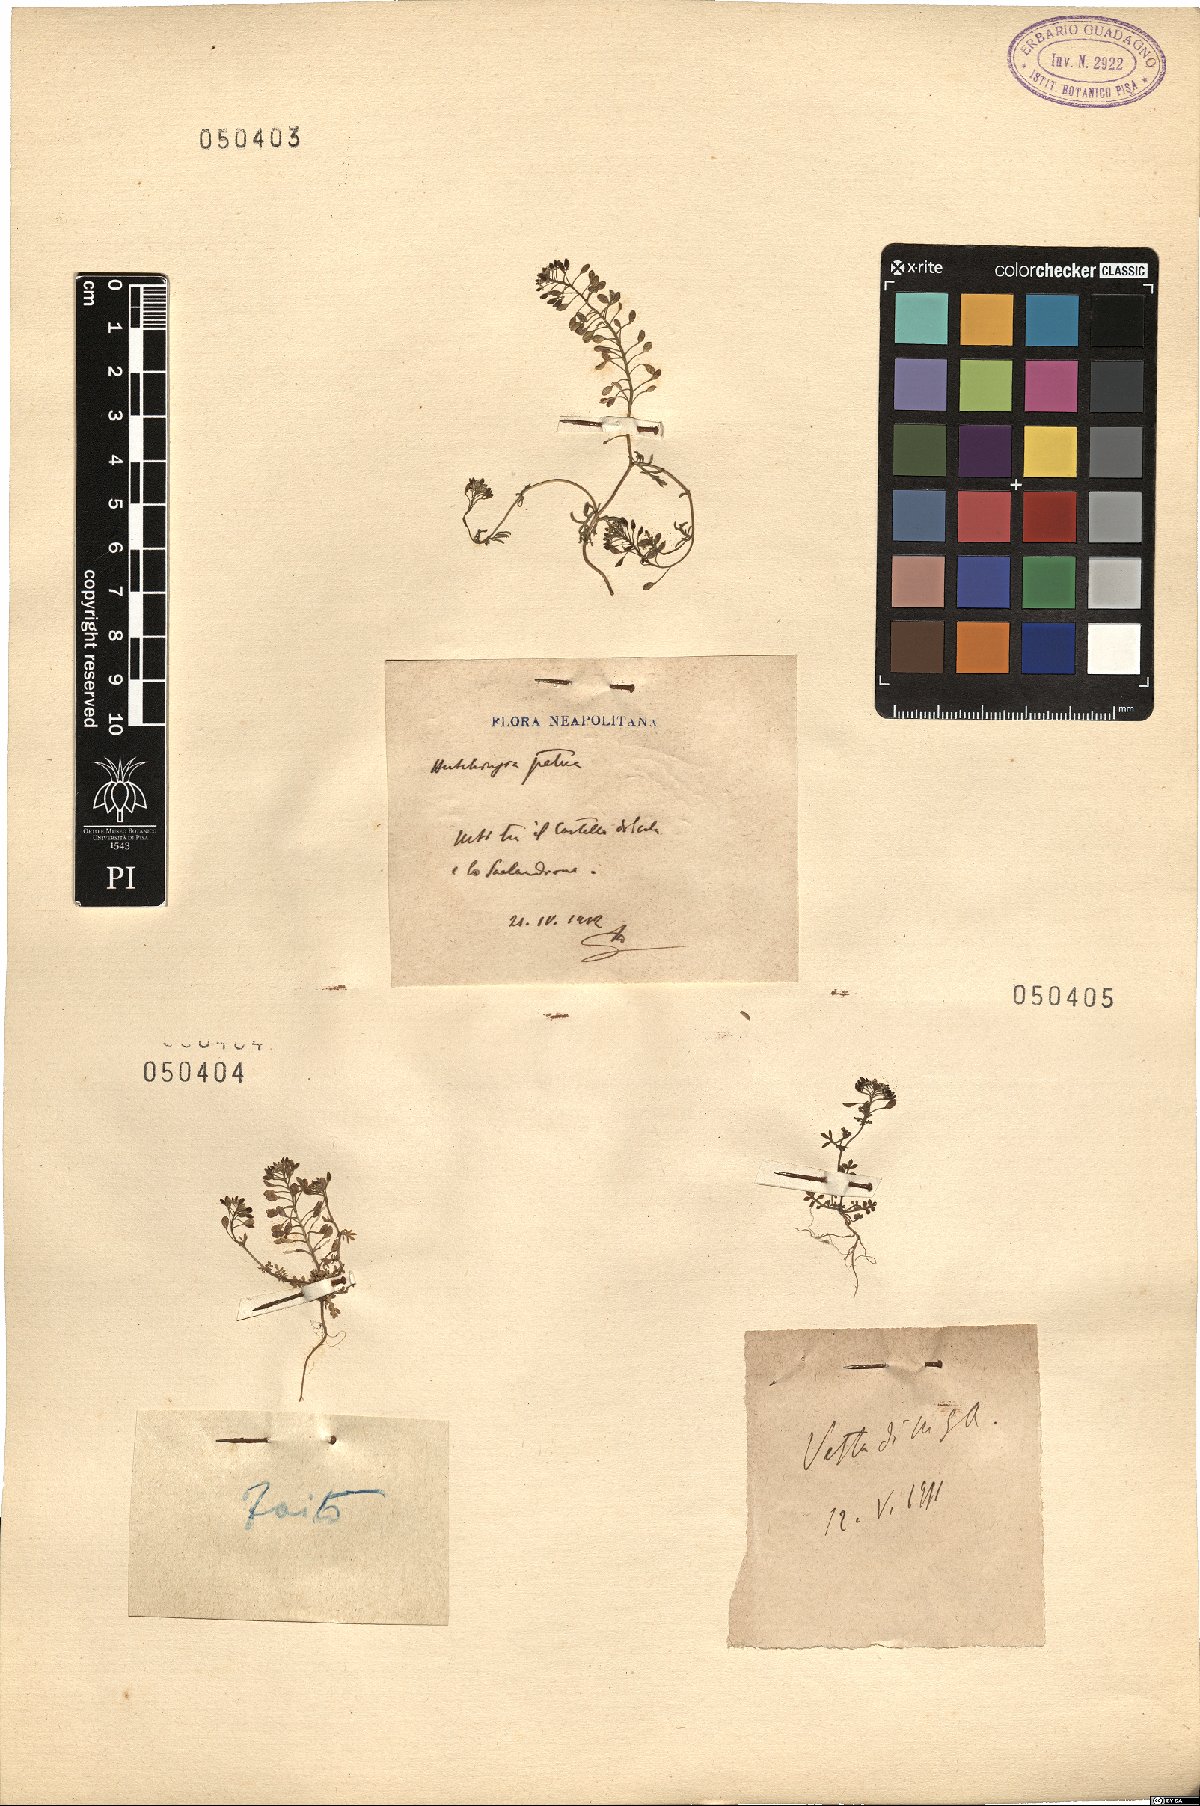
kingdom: Plantae
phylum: Tracheophyta
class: Magnoliopsida
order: Brassicales
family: Brassicaceae
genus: Hornungia
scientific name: Hornungia petraea
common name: Hutchinsia
